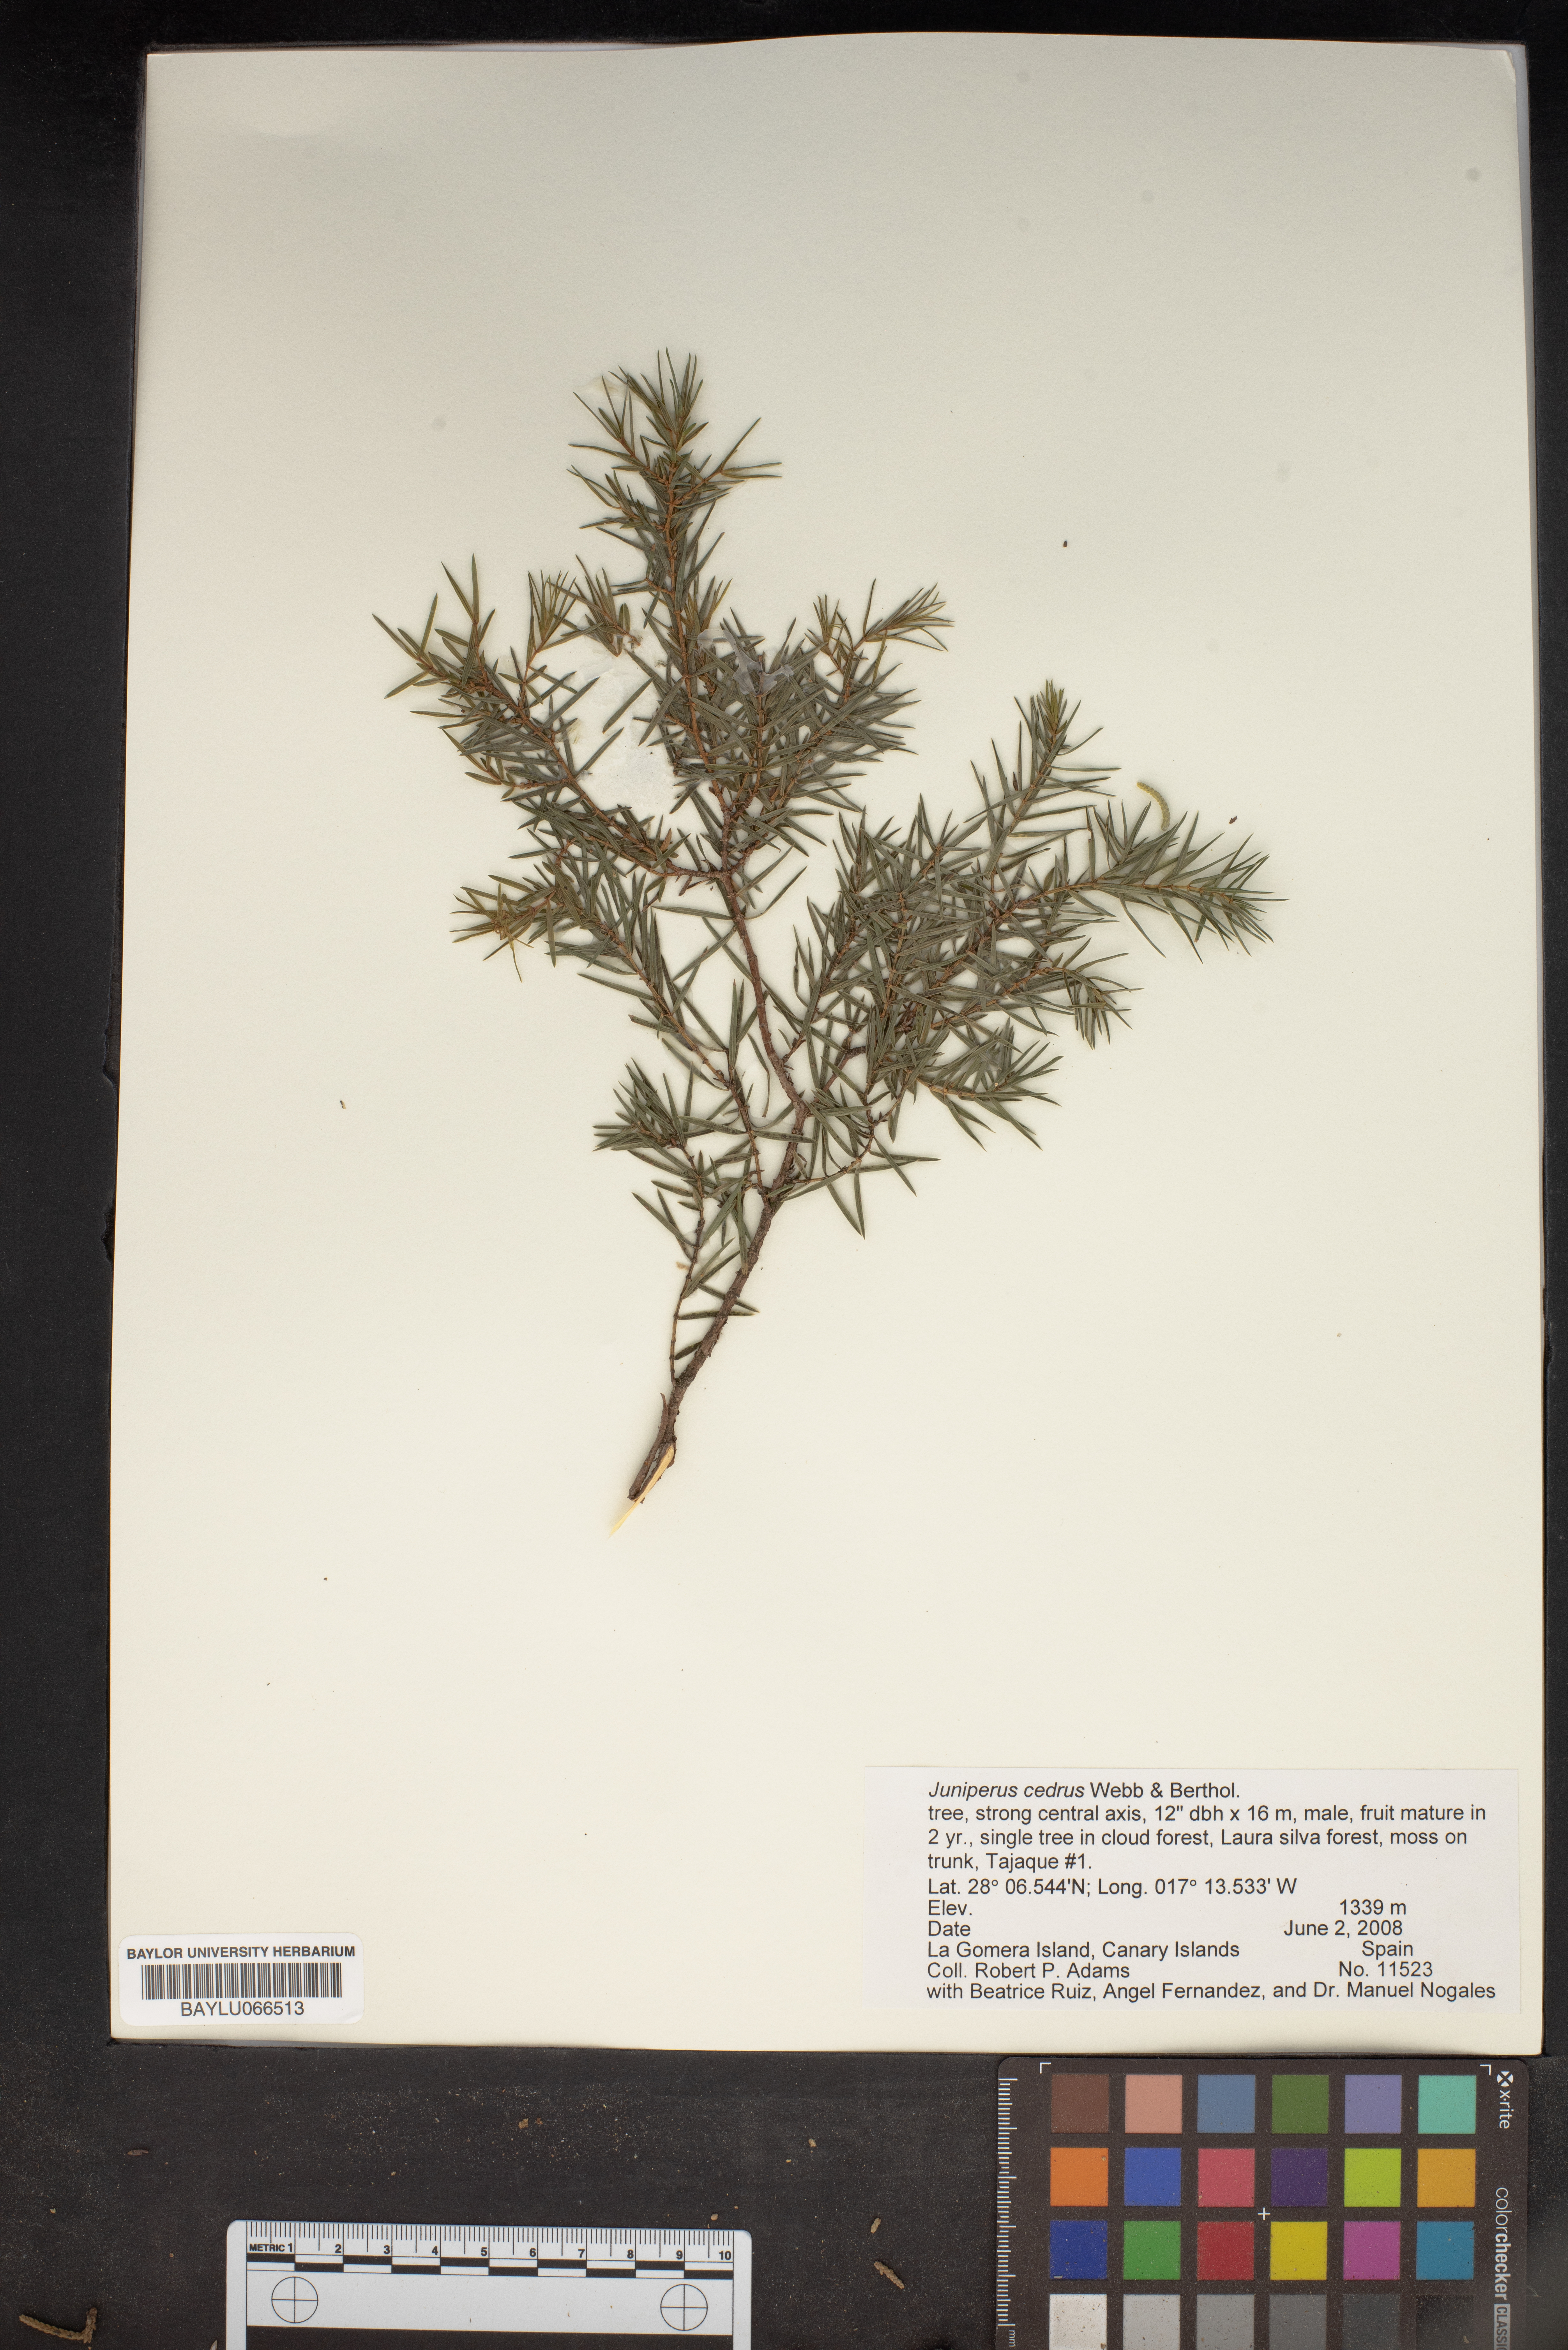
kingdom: Plantae
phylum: Tracheophyta
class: Pinopsida
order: Pinales
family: Cupressaceae
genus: Juniperus
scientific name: Juniperus cedrus
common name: Canary islands juniper
